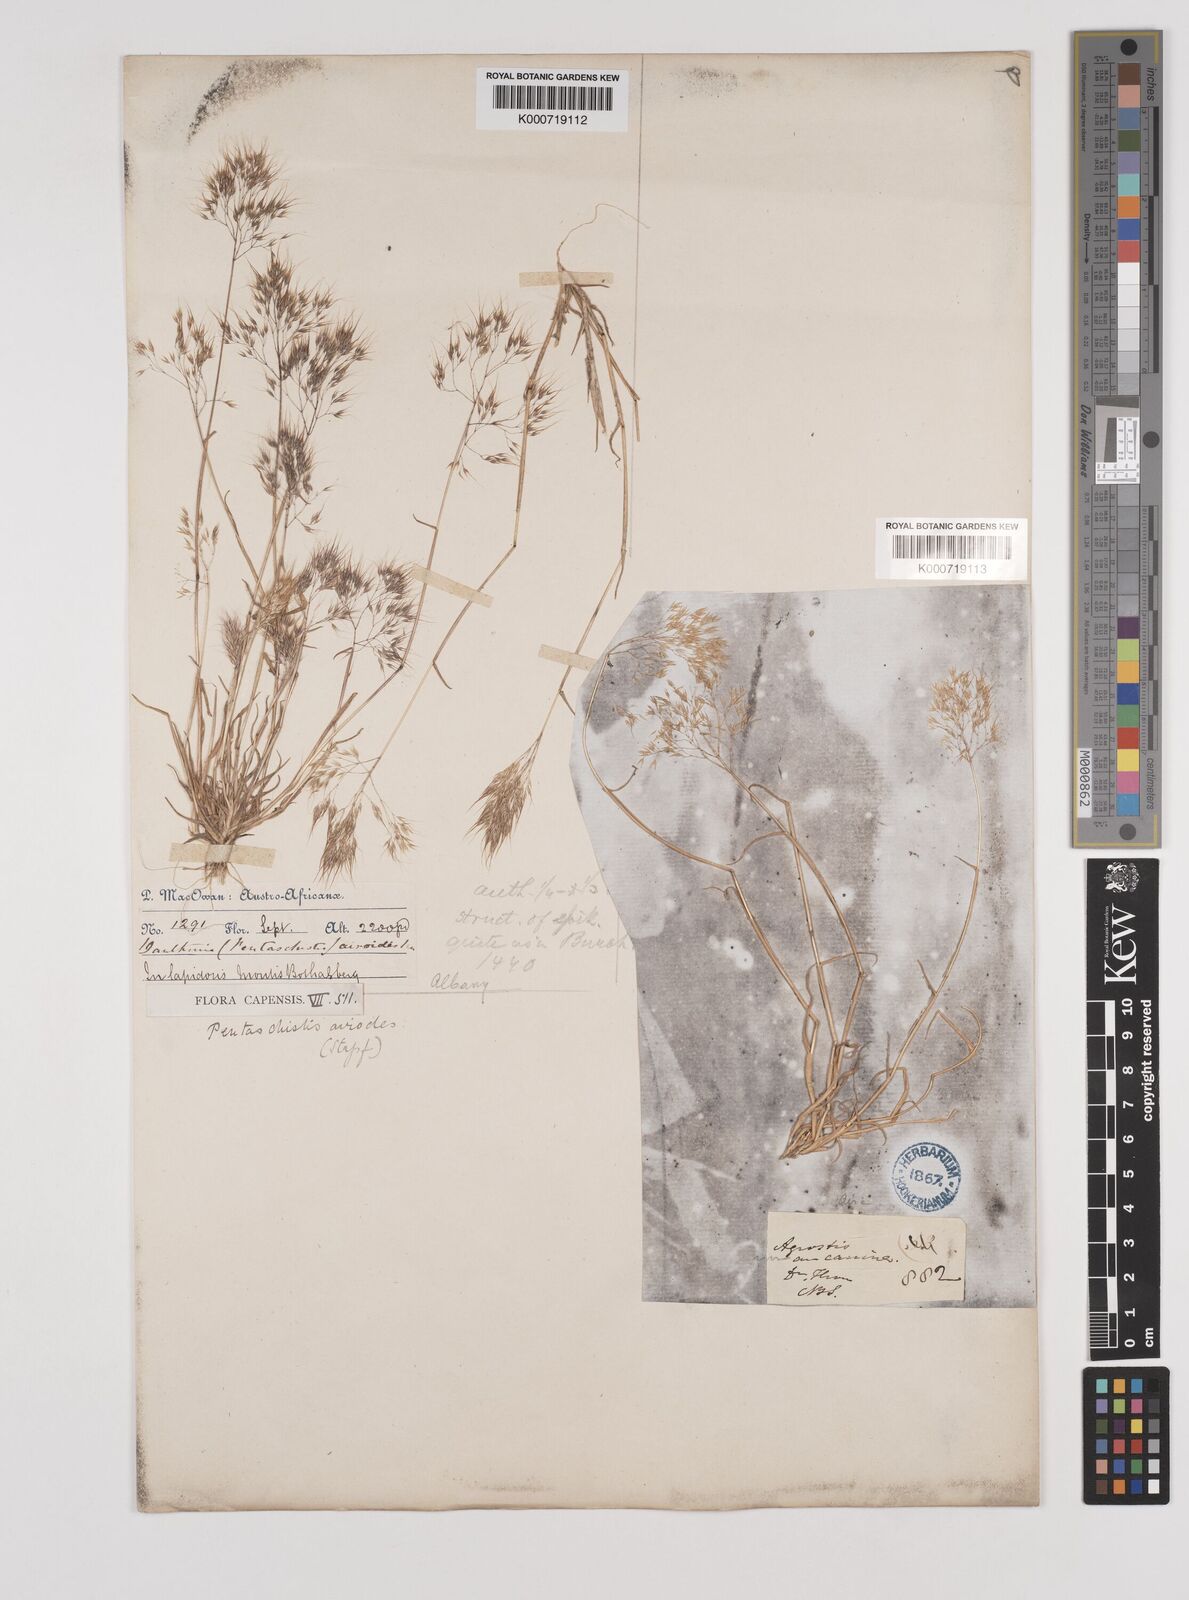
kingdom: Plantae
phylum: Tracheophyta
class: Liliopsida
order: Poales
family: Poaceae
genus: Pentameris
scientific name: Pentameris airoides
